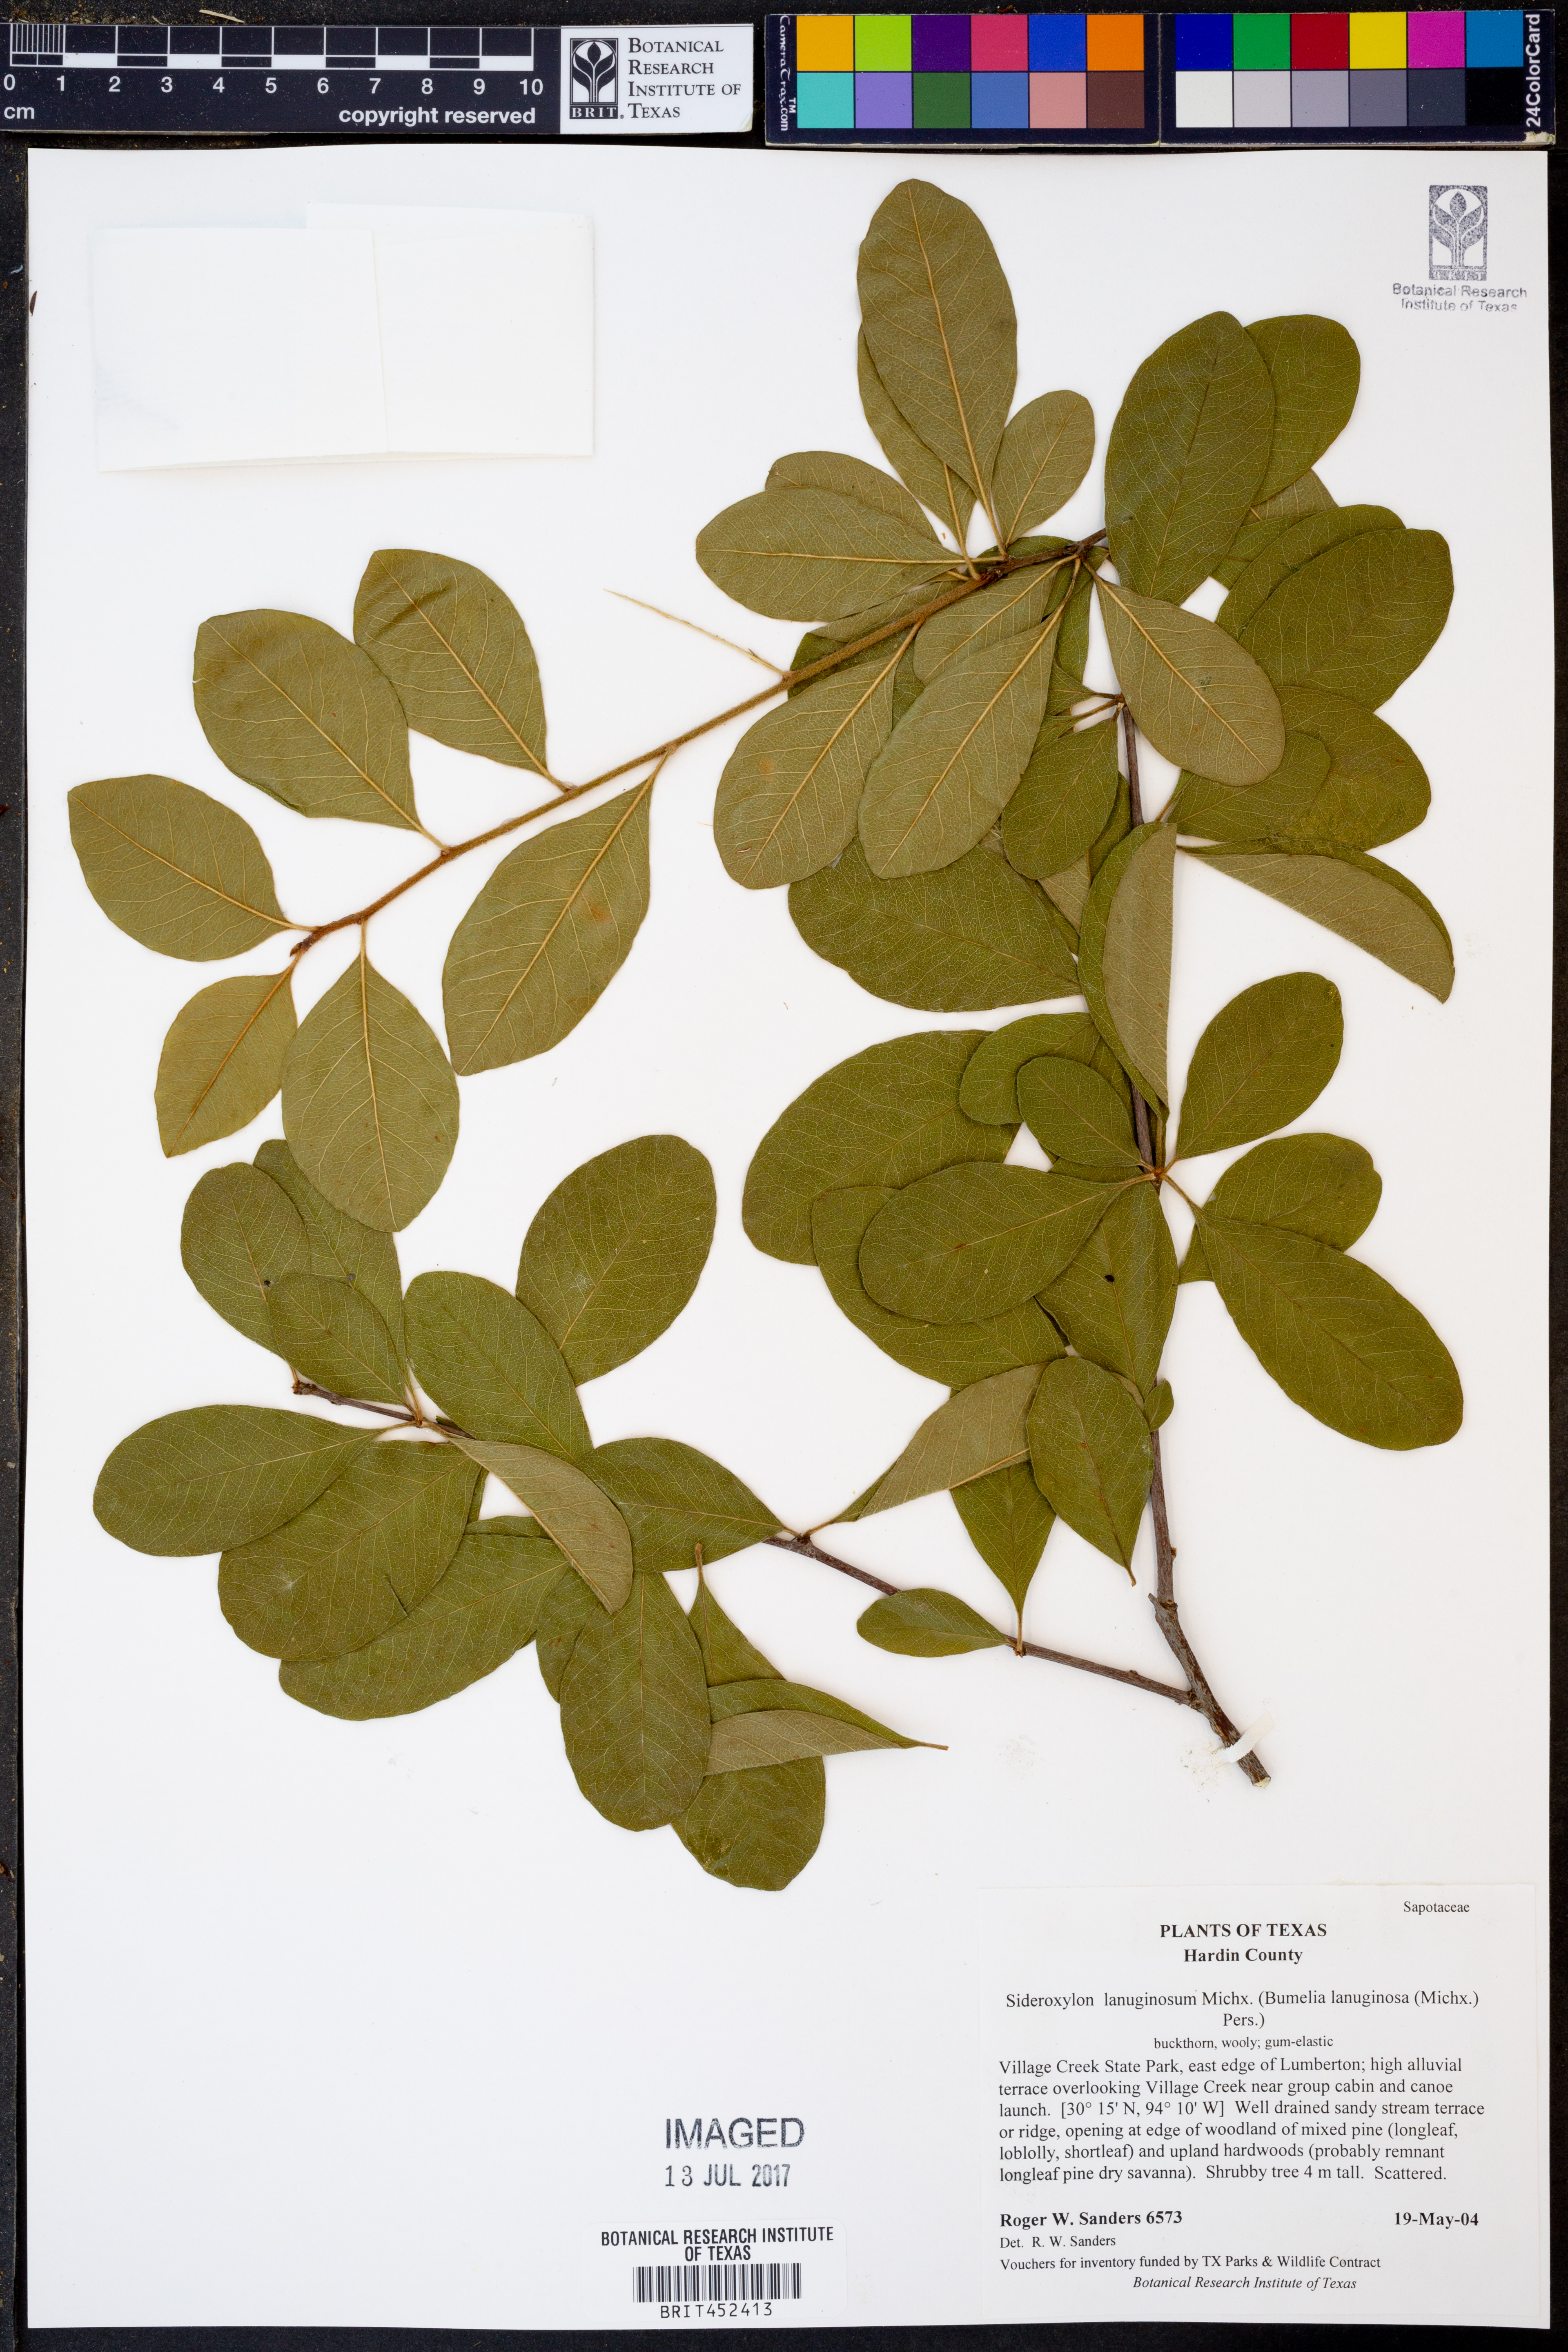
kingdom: Plantae
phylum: Tracheophyta
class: Magnoliopsida
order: Ericales
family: Sapotaceae
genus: Sideroxylon
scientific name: Sideroxylon lanuginosum
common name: Chittamwood
